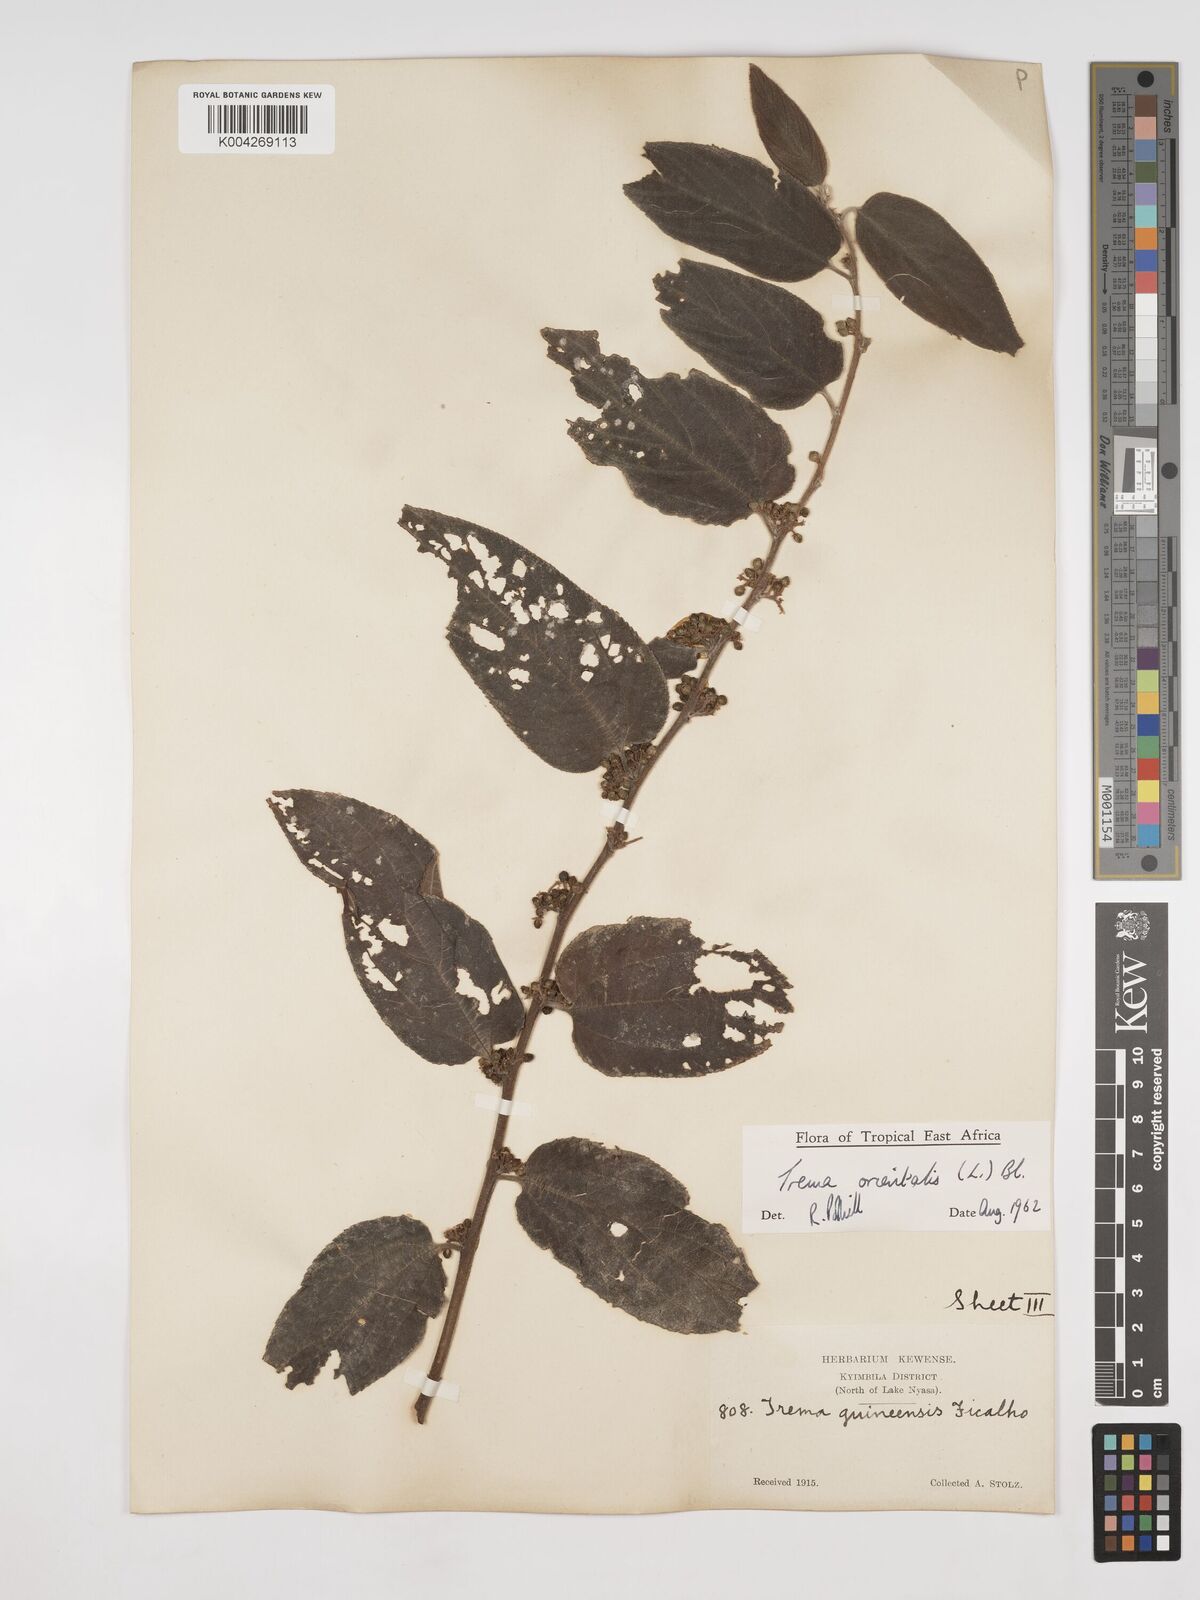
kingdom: Plantae
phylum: Tracheophyta
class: Magnoliopsida
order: Rosales
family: Cannabaceae
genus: Trema
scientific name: Trema orientale
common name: Indian charcoal tree
